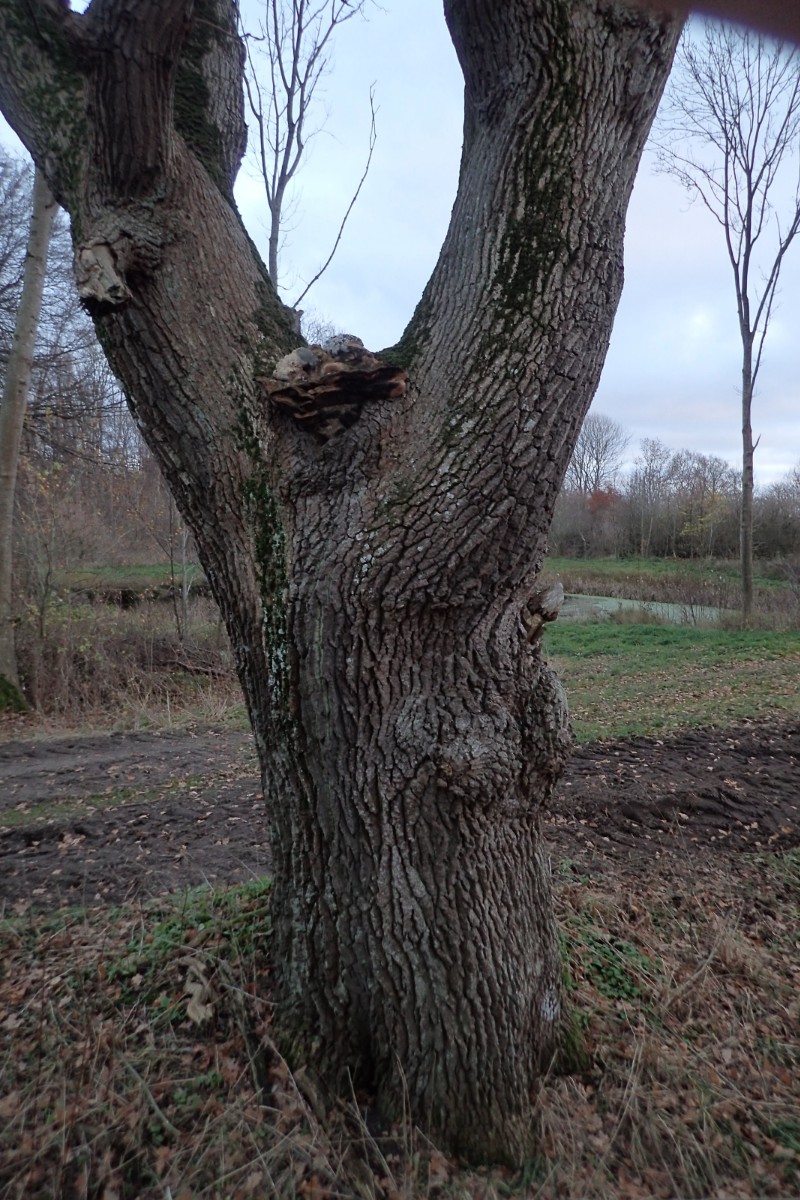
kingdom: Fungi
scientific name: Fungi
